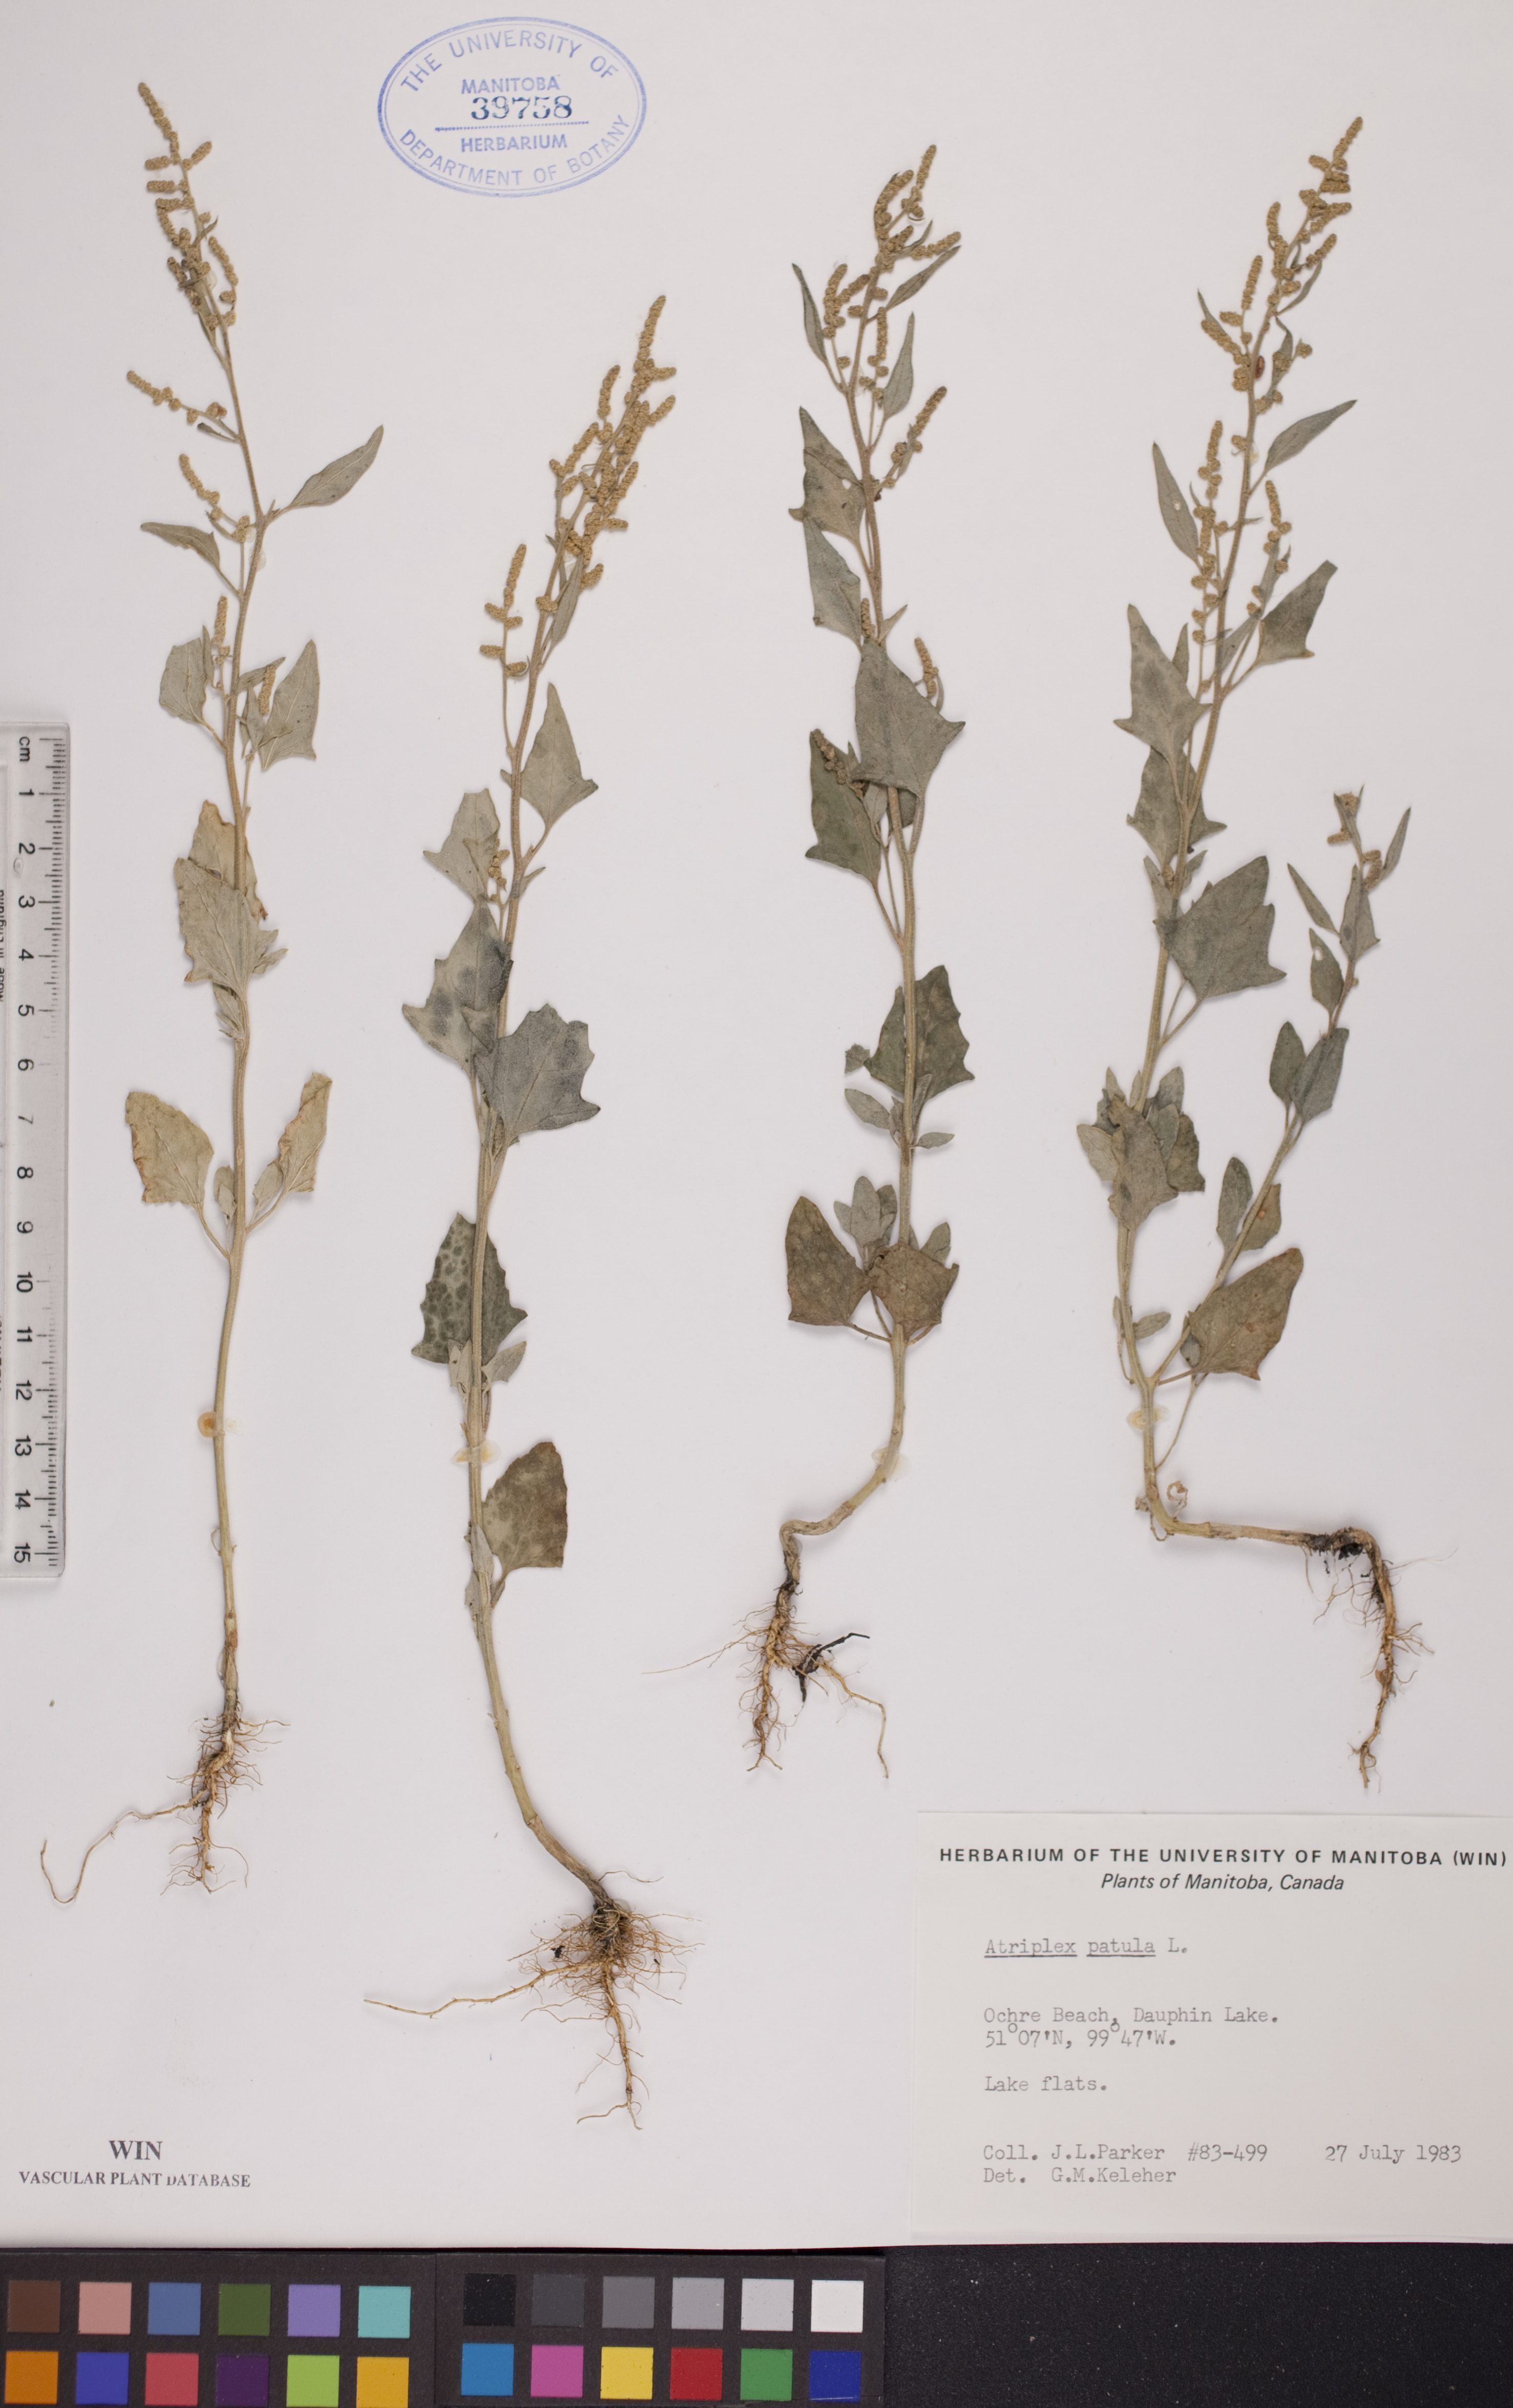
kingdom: Plantae
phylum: Tracheophyta
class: Magnoliopsida
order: Caryophyllales
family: Amaranthaceae
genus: Atriplex
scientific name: Atriplex patula
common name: Common orache
